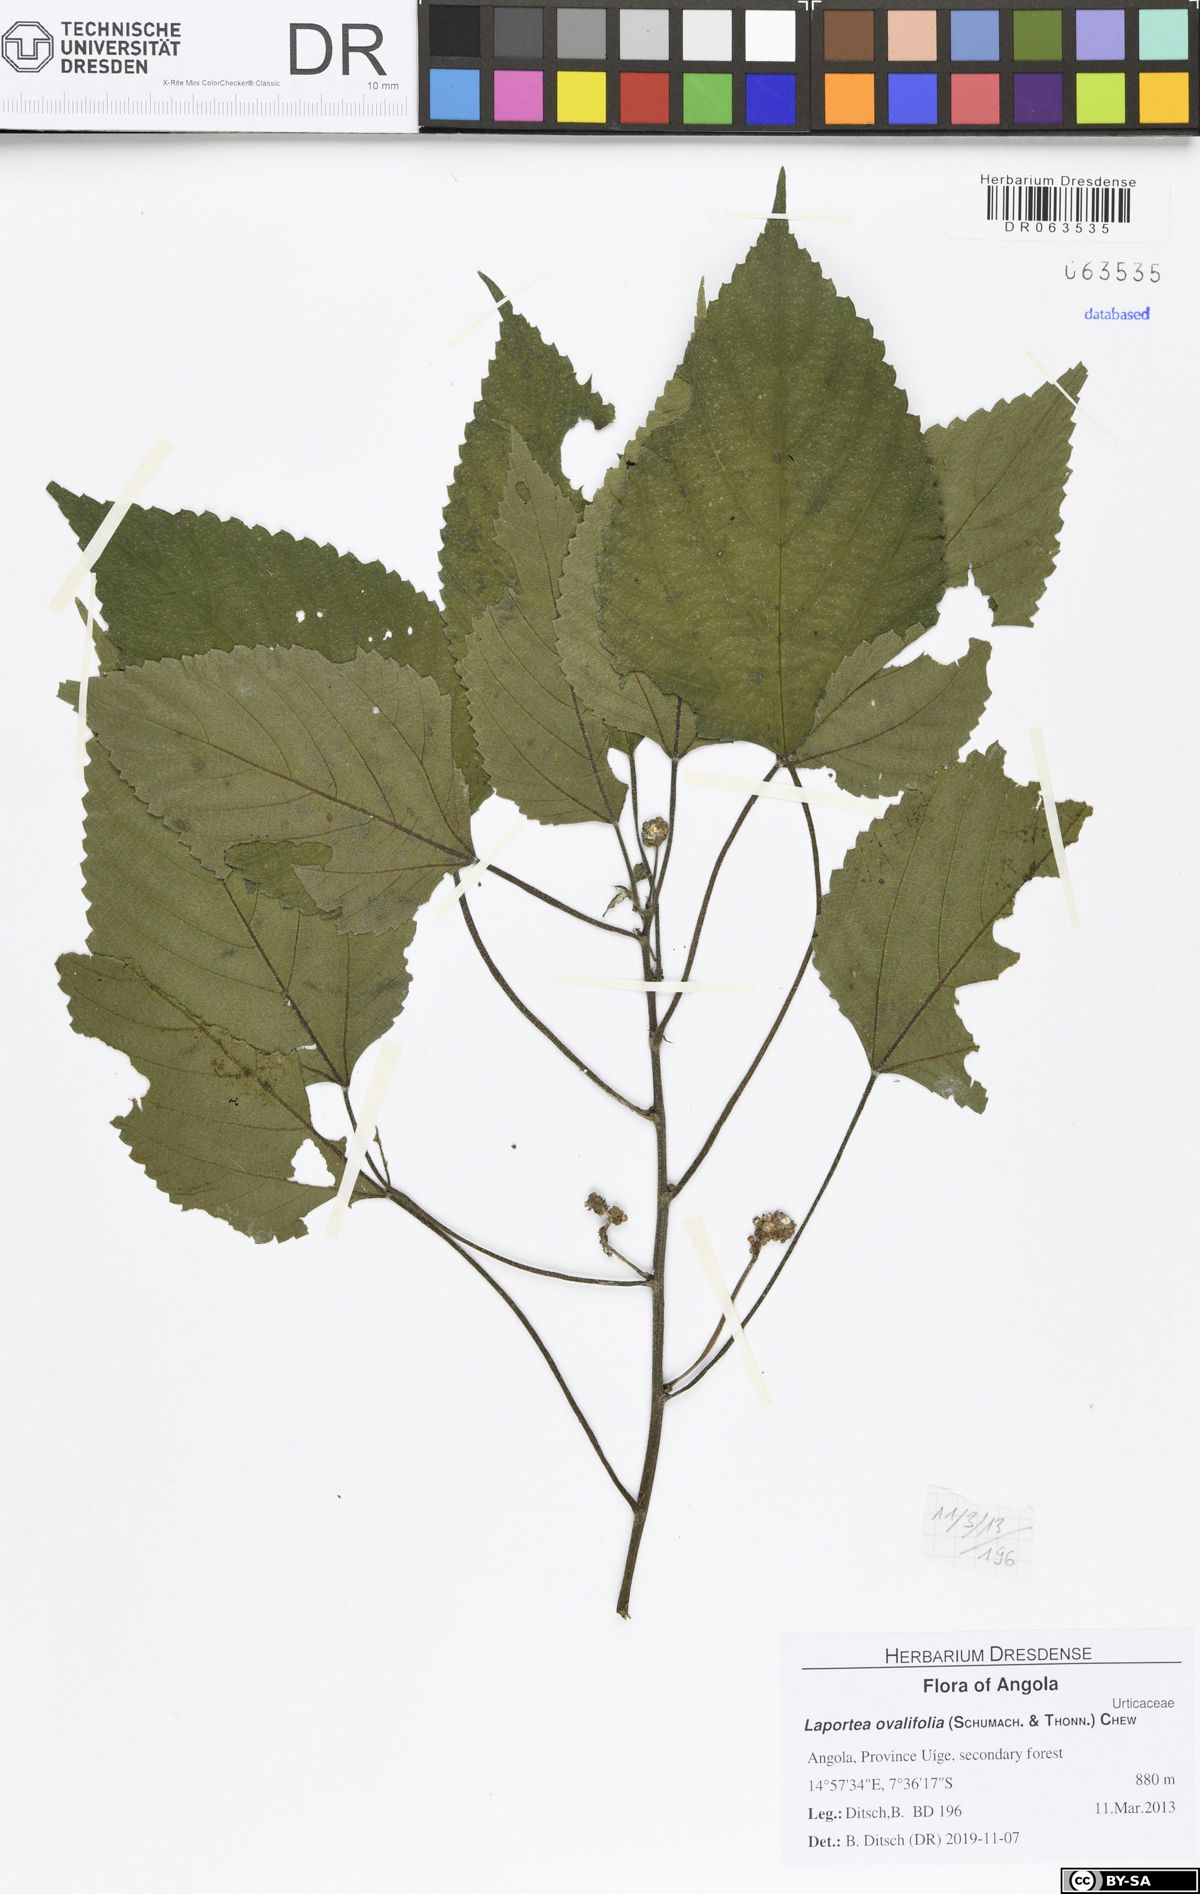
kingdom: Plantae
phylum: Tracheophyta
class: Magnoliopsida
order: Rosales
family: Urticaceae
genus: Laportea
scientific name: Laportea ovalifolia
